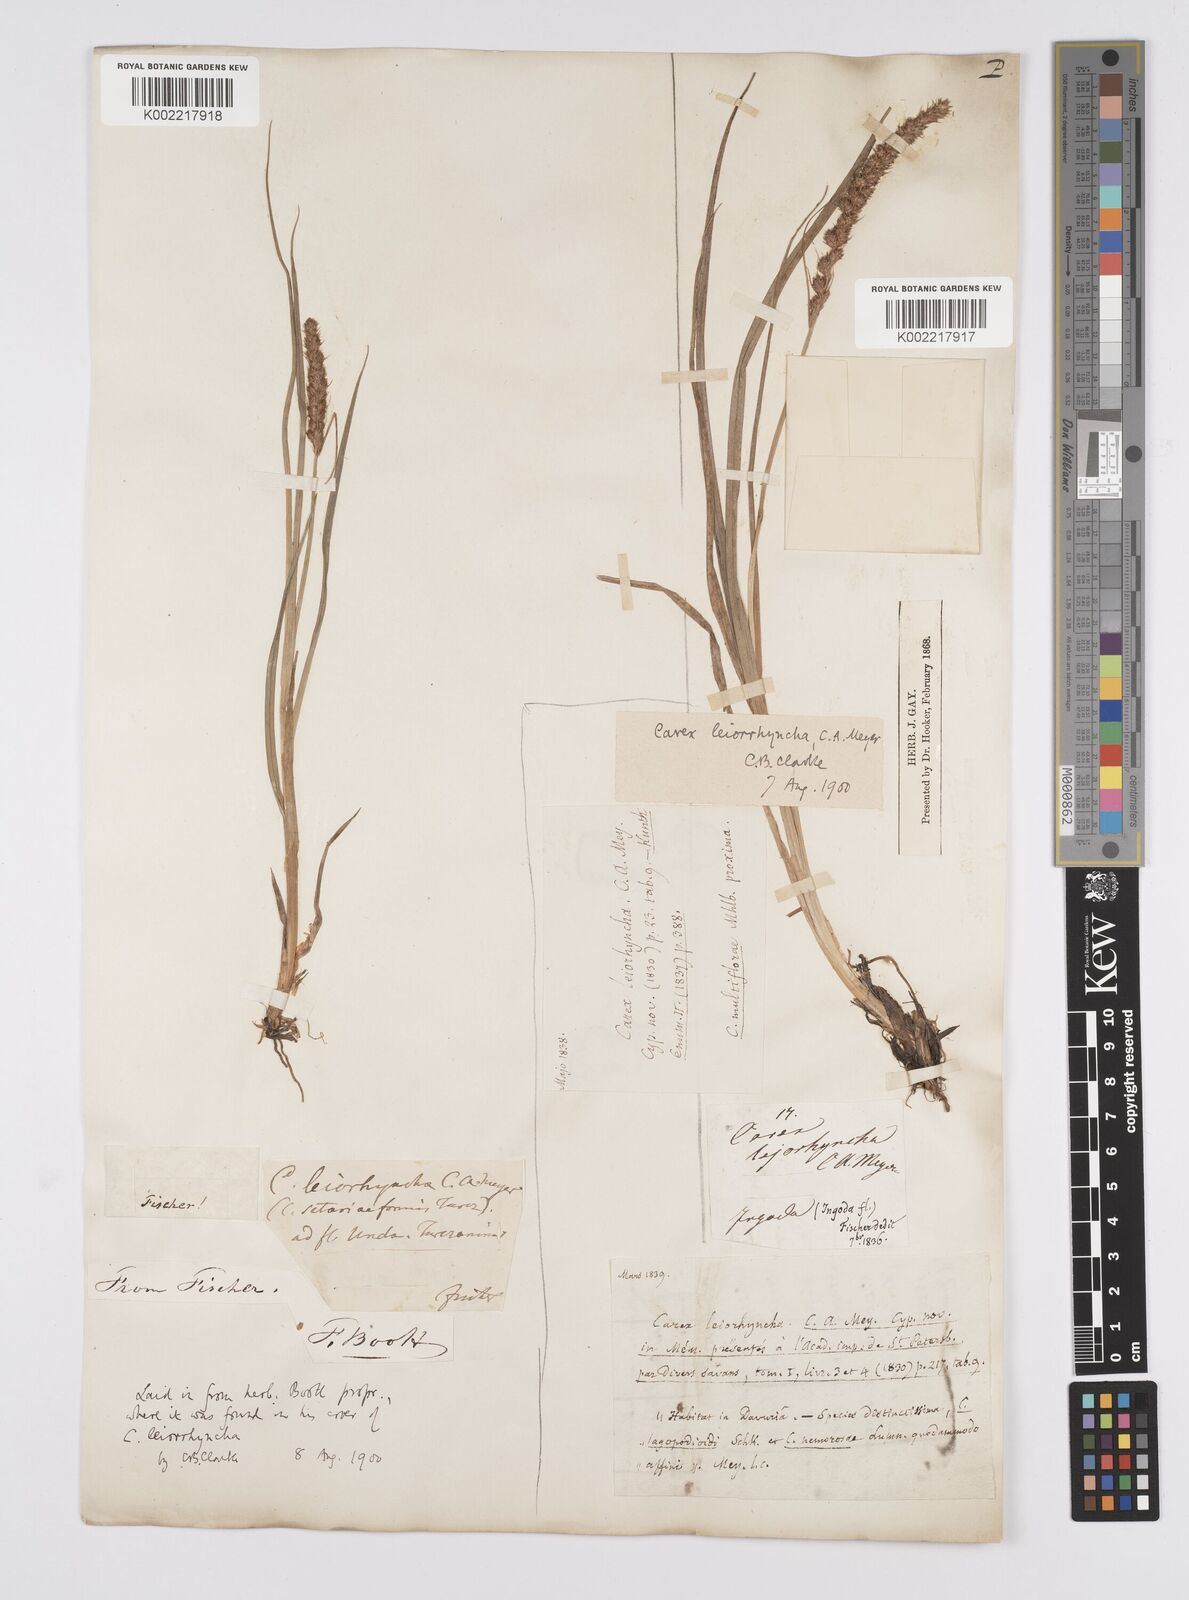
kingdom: Plantae
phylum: Tracheophyta
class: Liliopsida
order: Poales
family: Cyperaceae
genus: Carex
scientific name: Carex leiorhyncha
